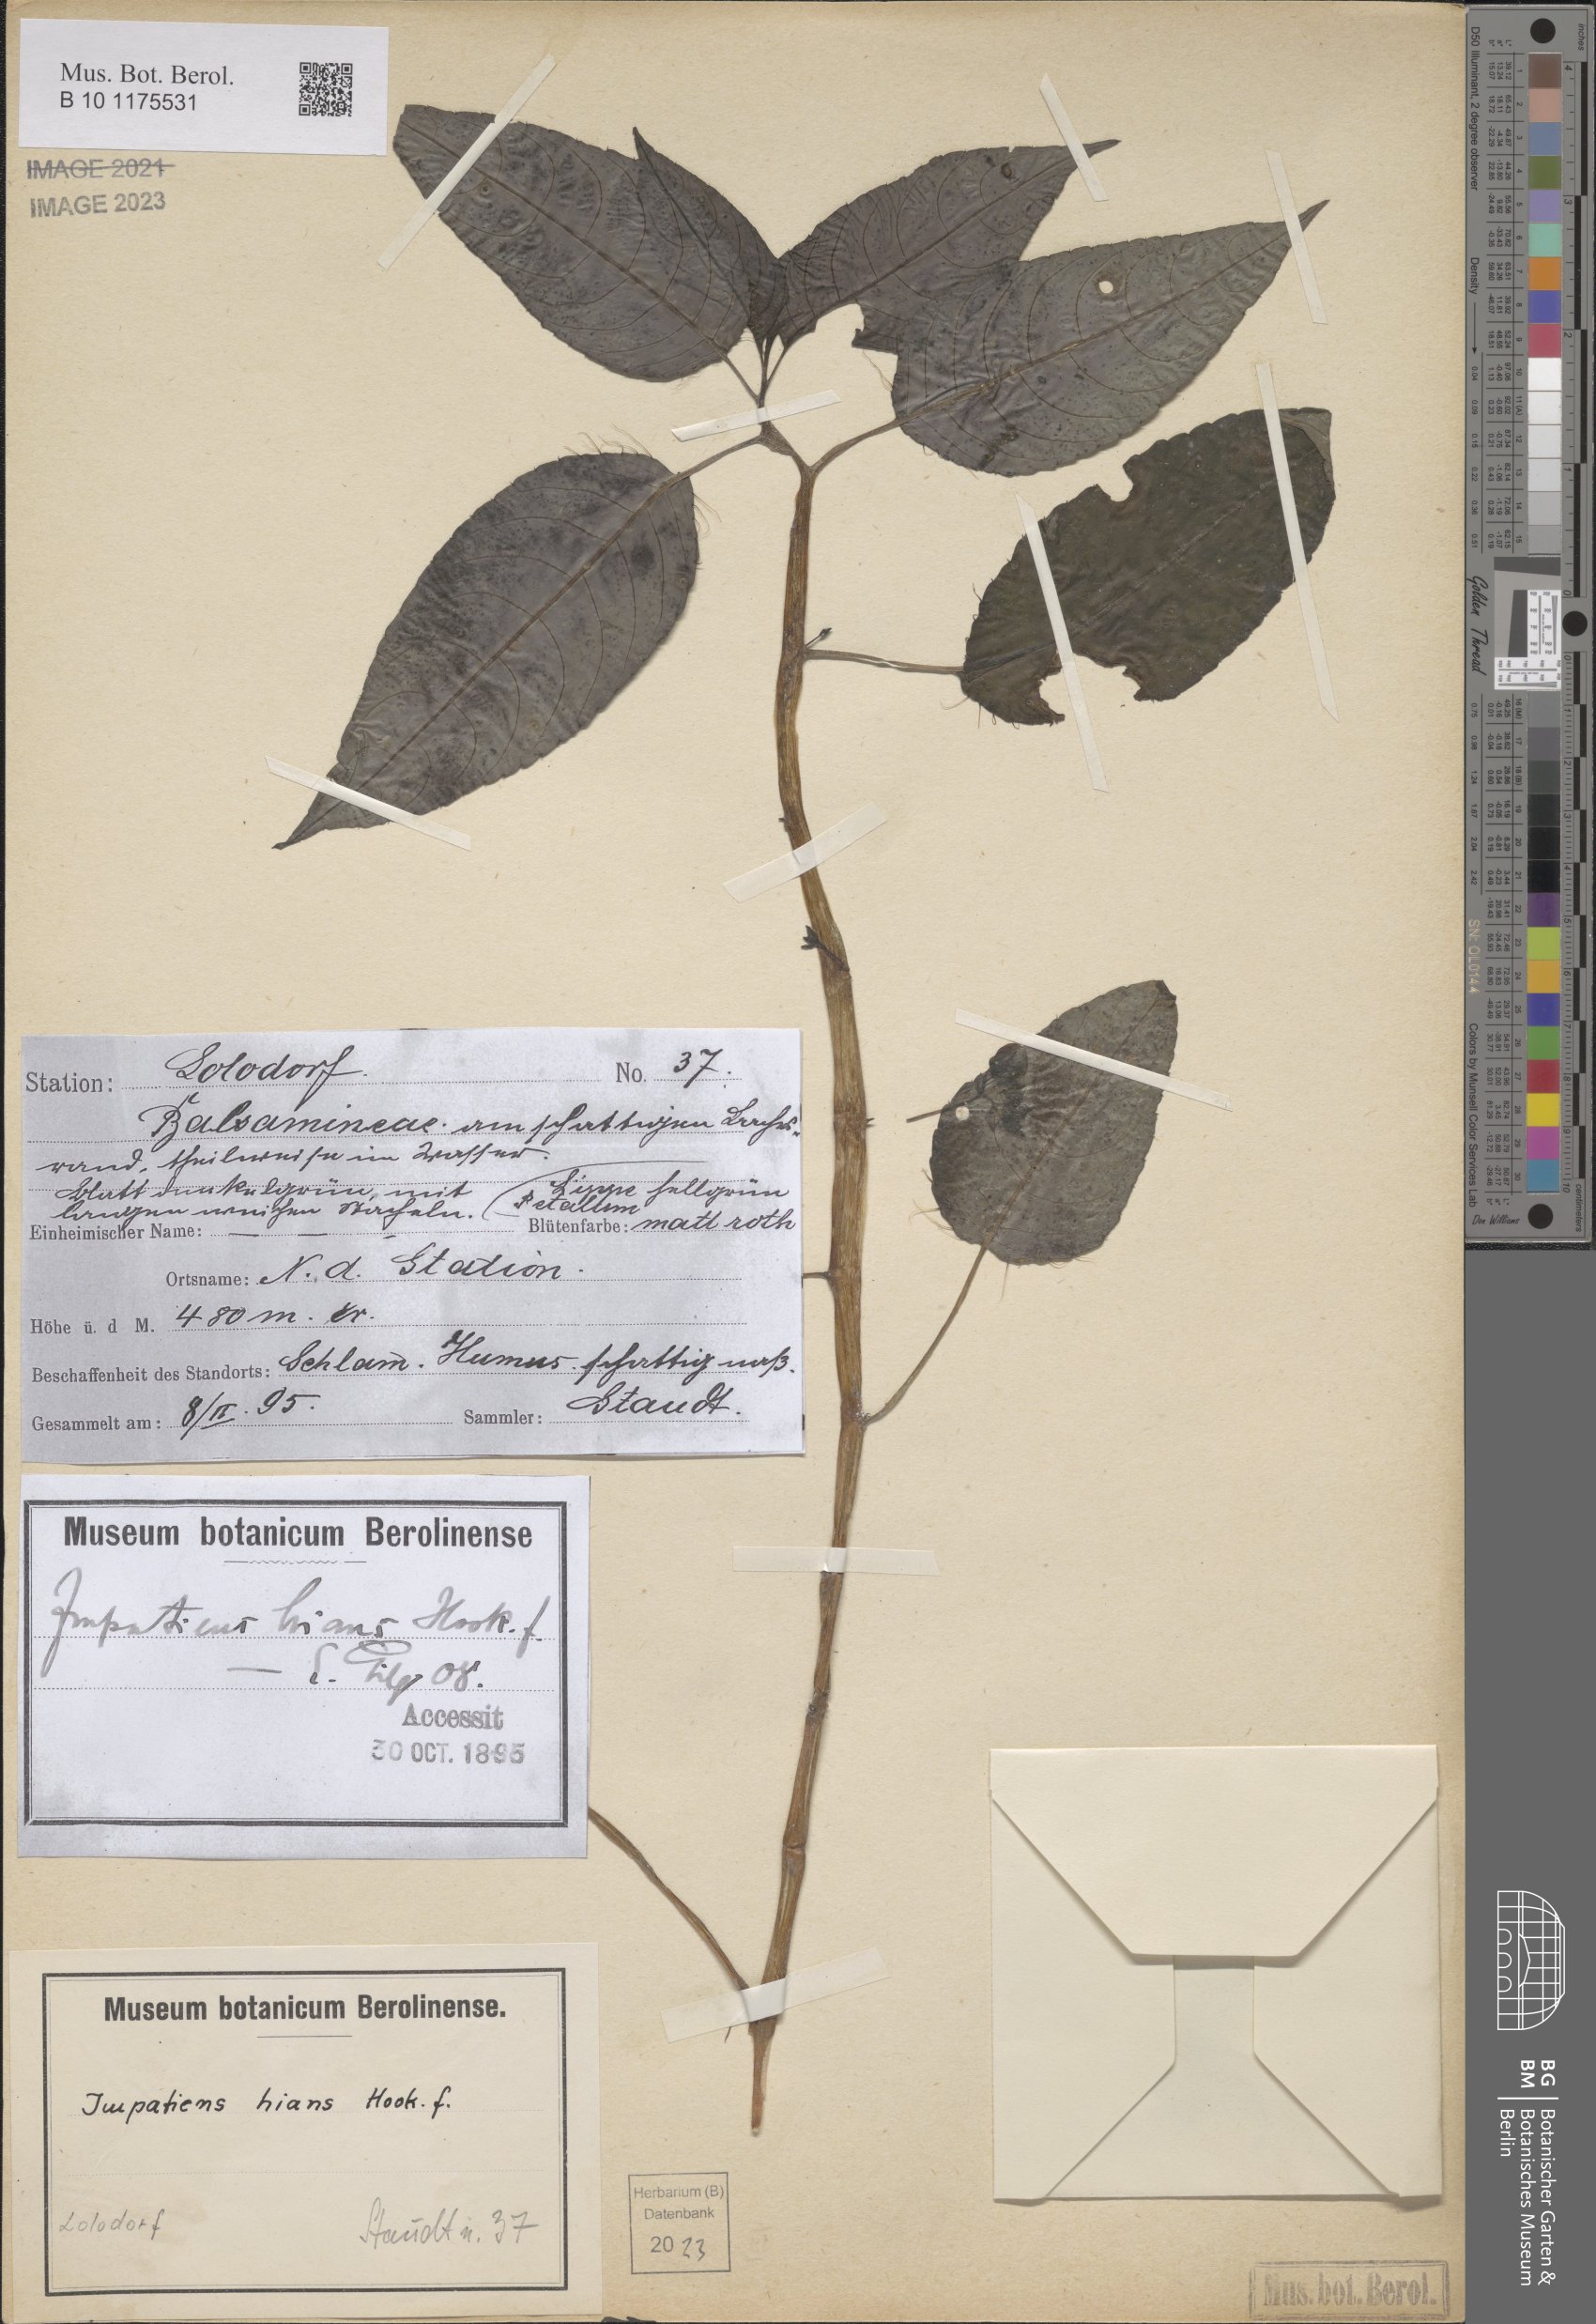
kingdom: Plantae
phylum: Tracheophyta
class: Magnoliopsida
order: Ericales
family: Balsaminaceae
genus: Impatiens
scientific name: Impatiens hians
